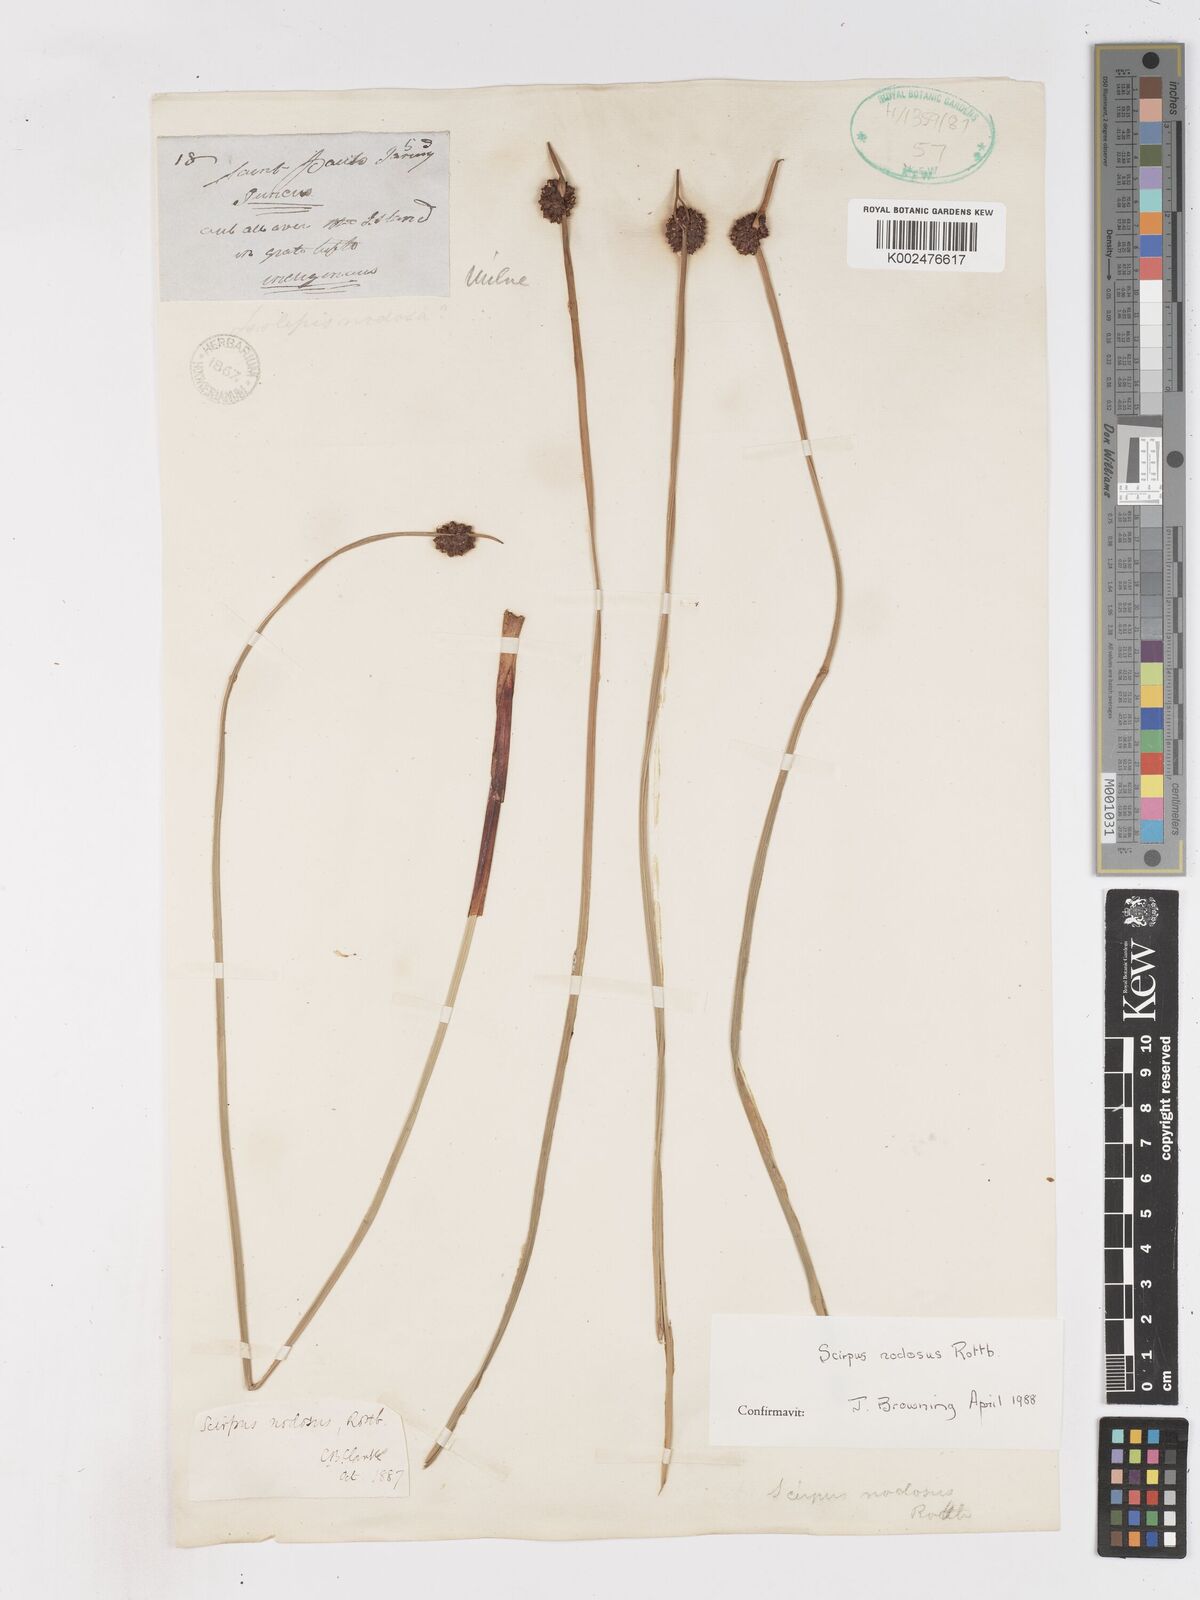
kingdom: Plantae
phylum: Tracheophyta
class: Liliopsida
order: Poales
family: Cyperaceae
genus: Ficinia
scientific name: Ficinia nodosa
